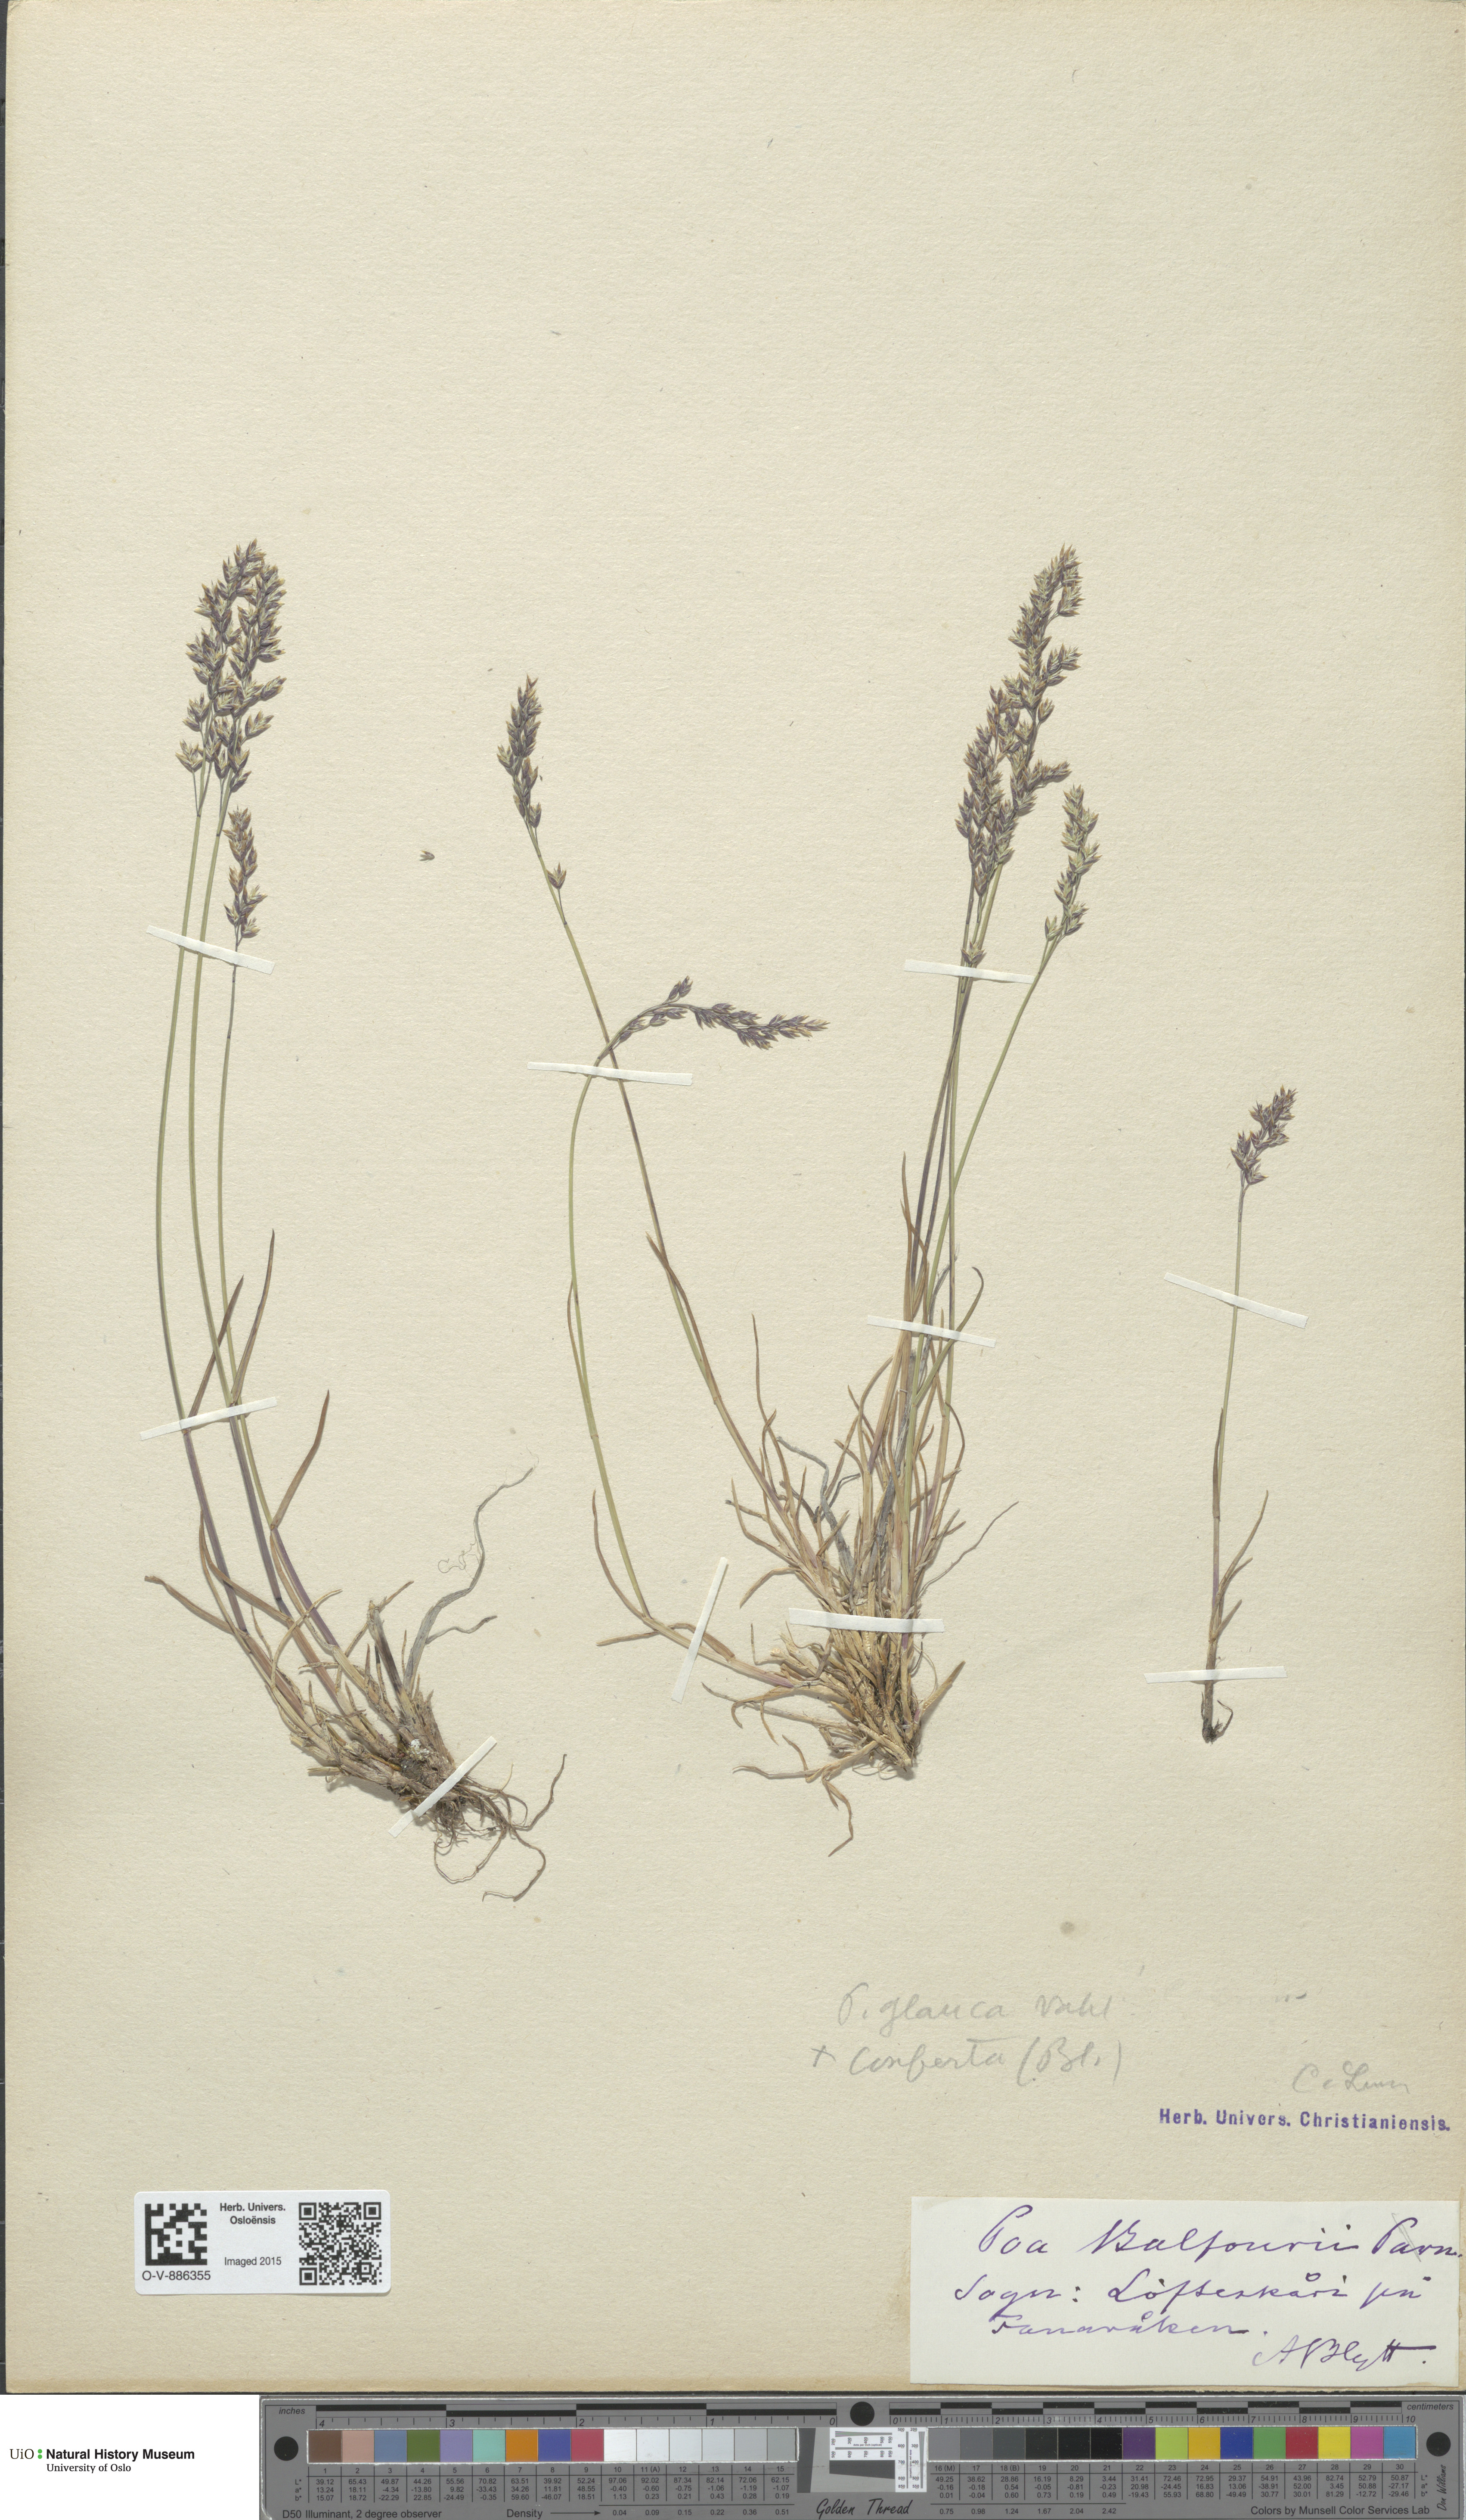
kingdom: Plantae
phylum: Tracheophyta
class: Liliopsida
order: Poales
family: Poaceae
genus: Poa
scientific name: Poa glauca
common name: Glaucous bluegrass
